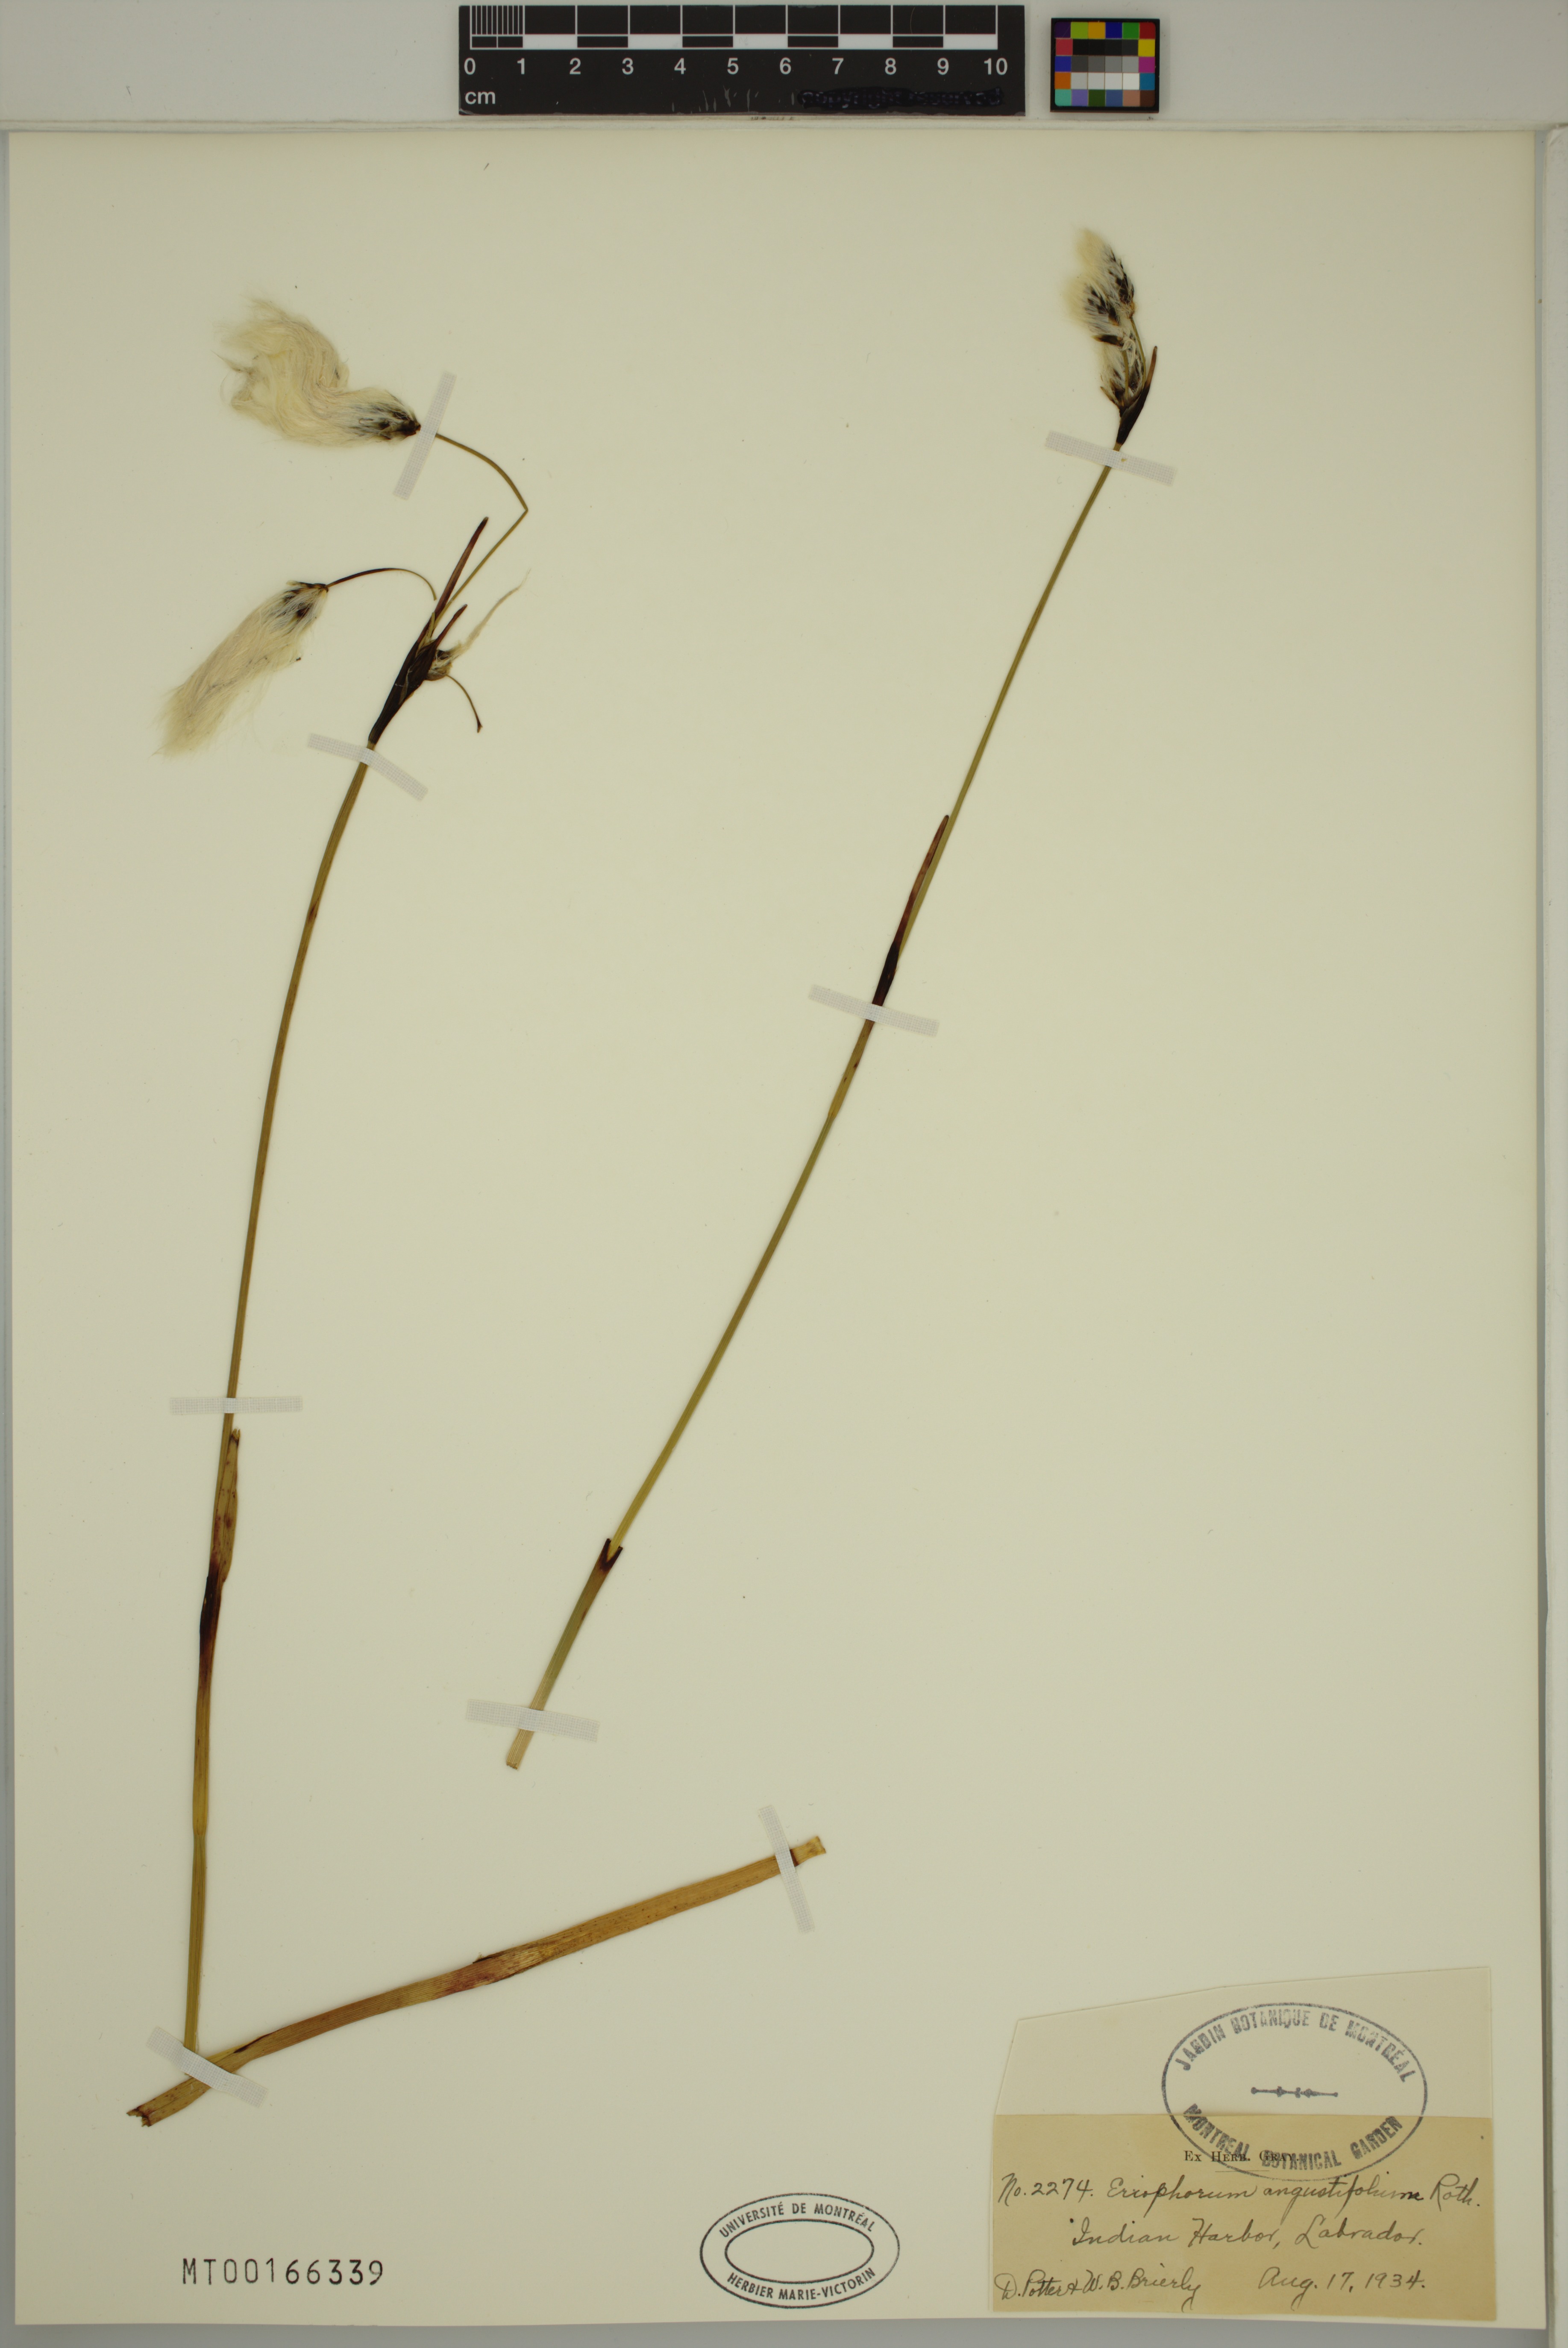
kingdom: Plantae
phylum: Tracheophyta
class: Liliopsida
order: Poales
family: Cyperaceae
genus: Eriophorum
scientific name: Eriophorum angustifolium
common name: Common cottongrass
